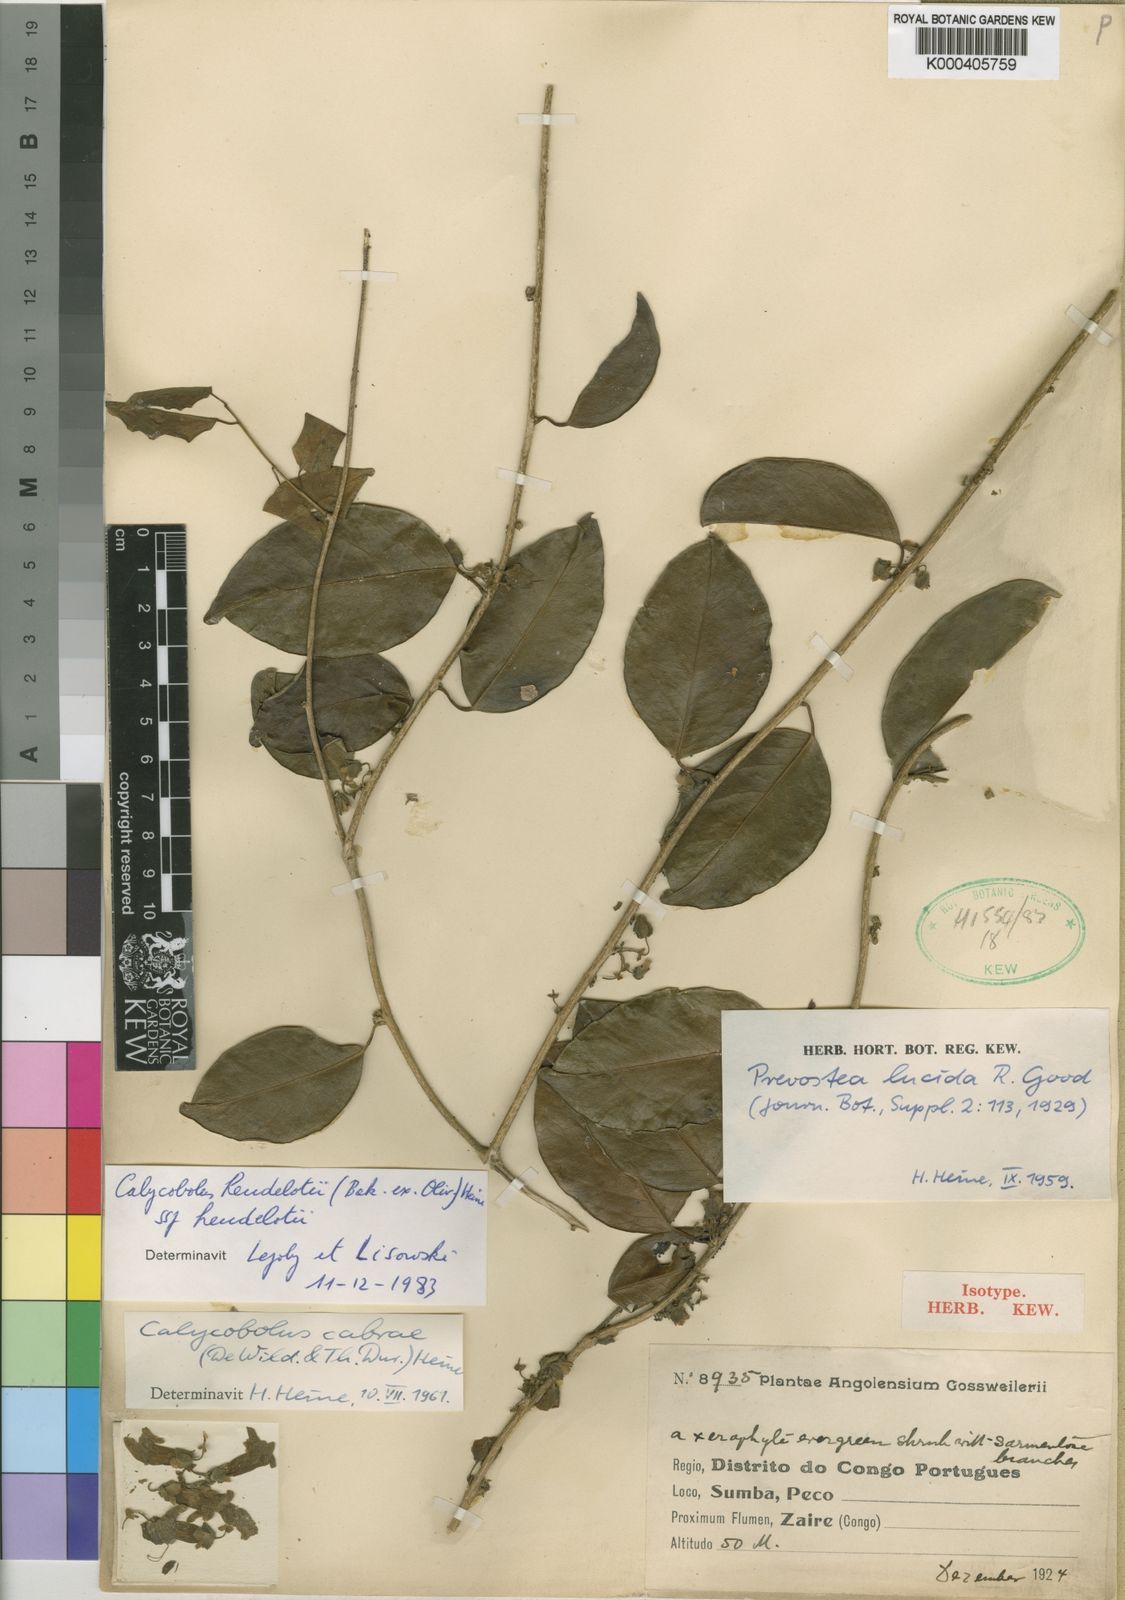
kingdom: Plantae
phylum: Tracheophyta
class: Magnoliopsida
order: Solanales
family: Convolvulaceae
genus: Calycobolus
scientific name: Calycobolus cabrae
